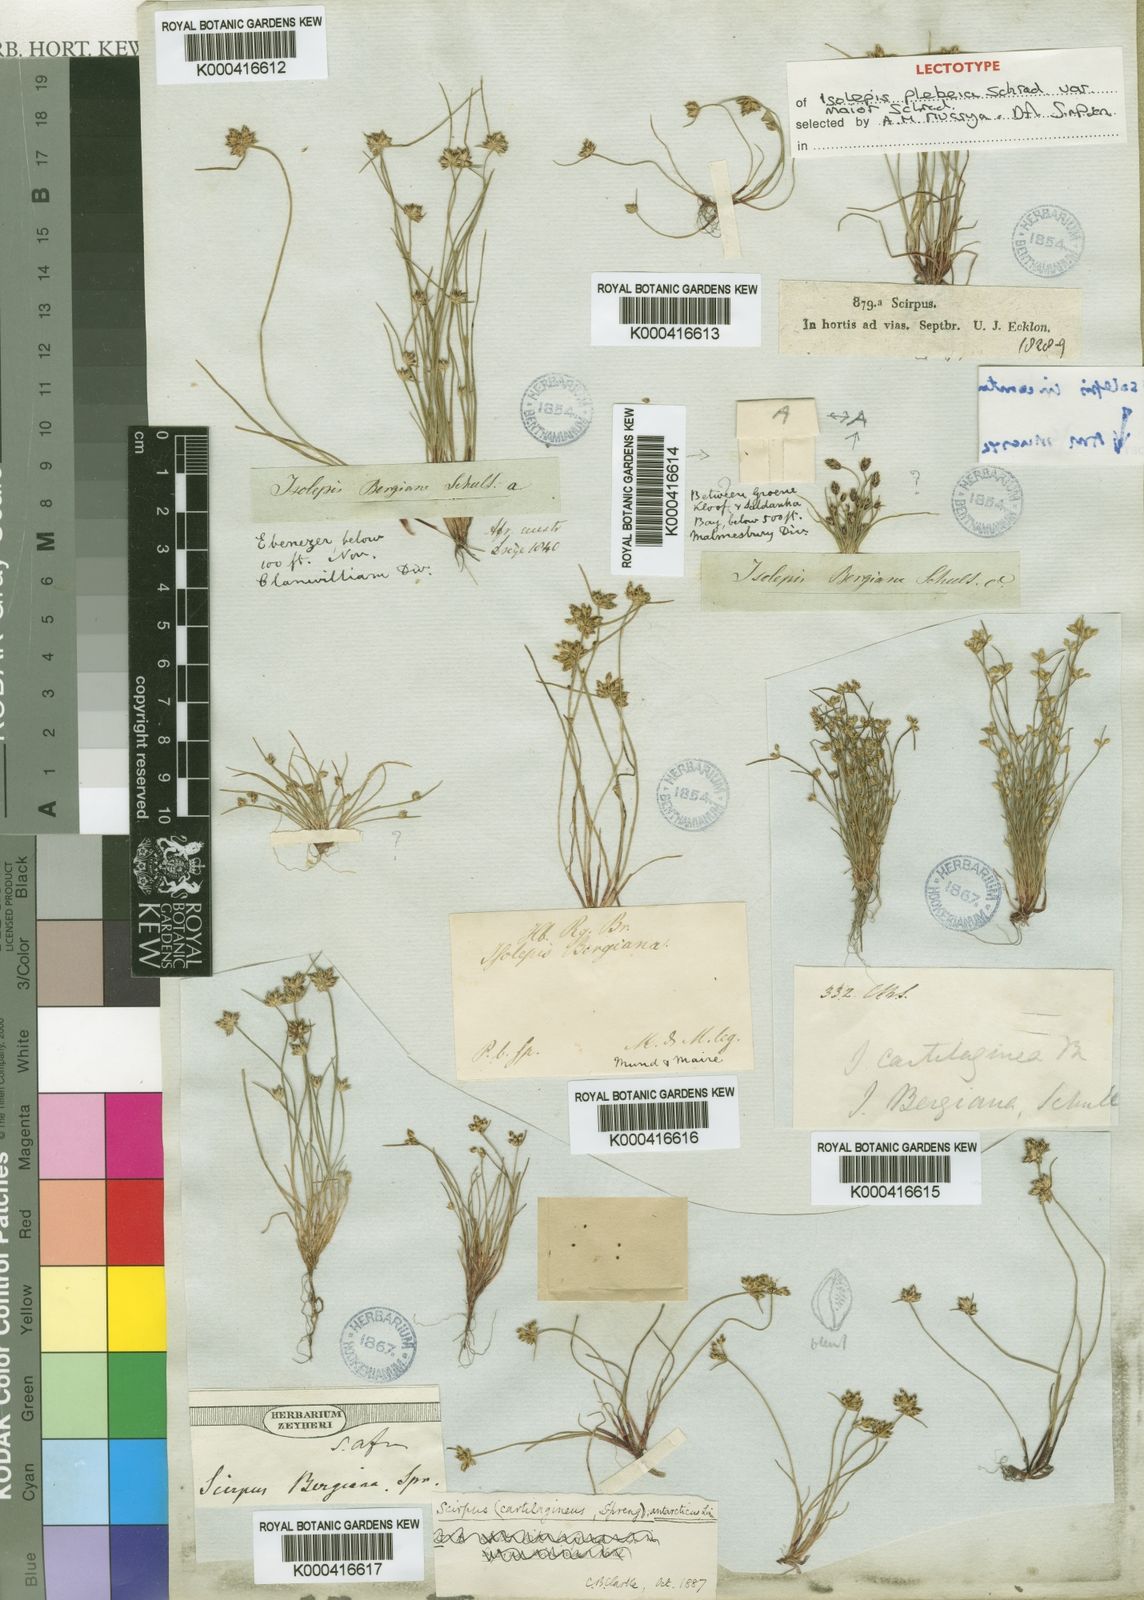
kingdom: Plantae
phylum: Tracheophyta
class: Liliopsida
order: Poales
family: Cyperaceae
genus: Isolepis
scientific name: Isolepis marginata
